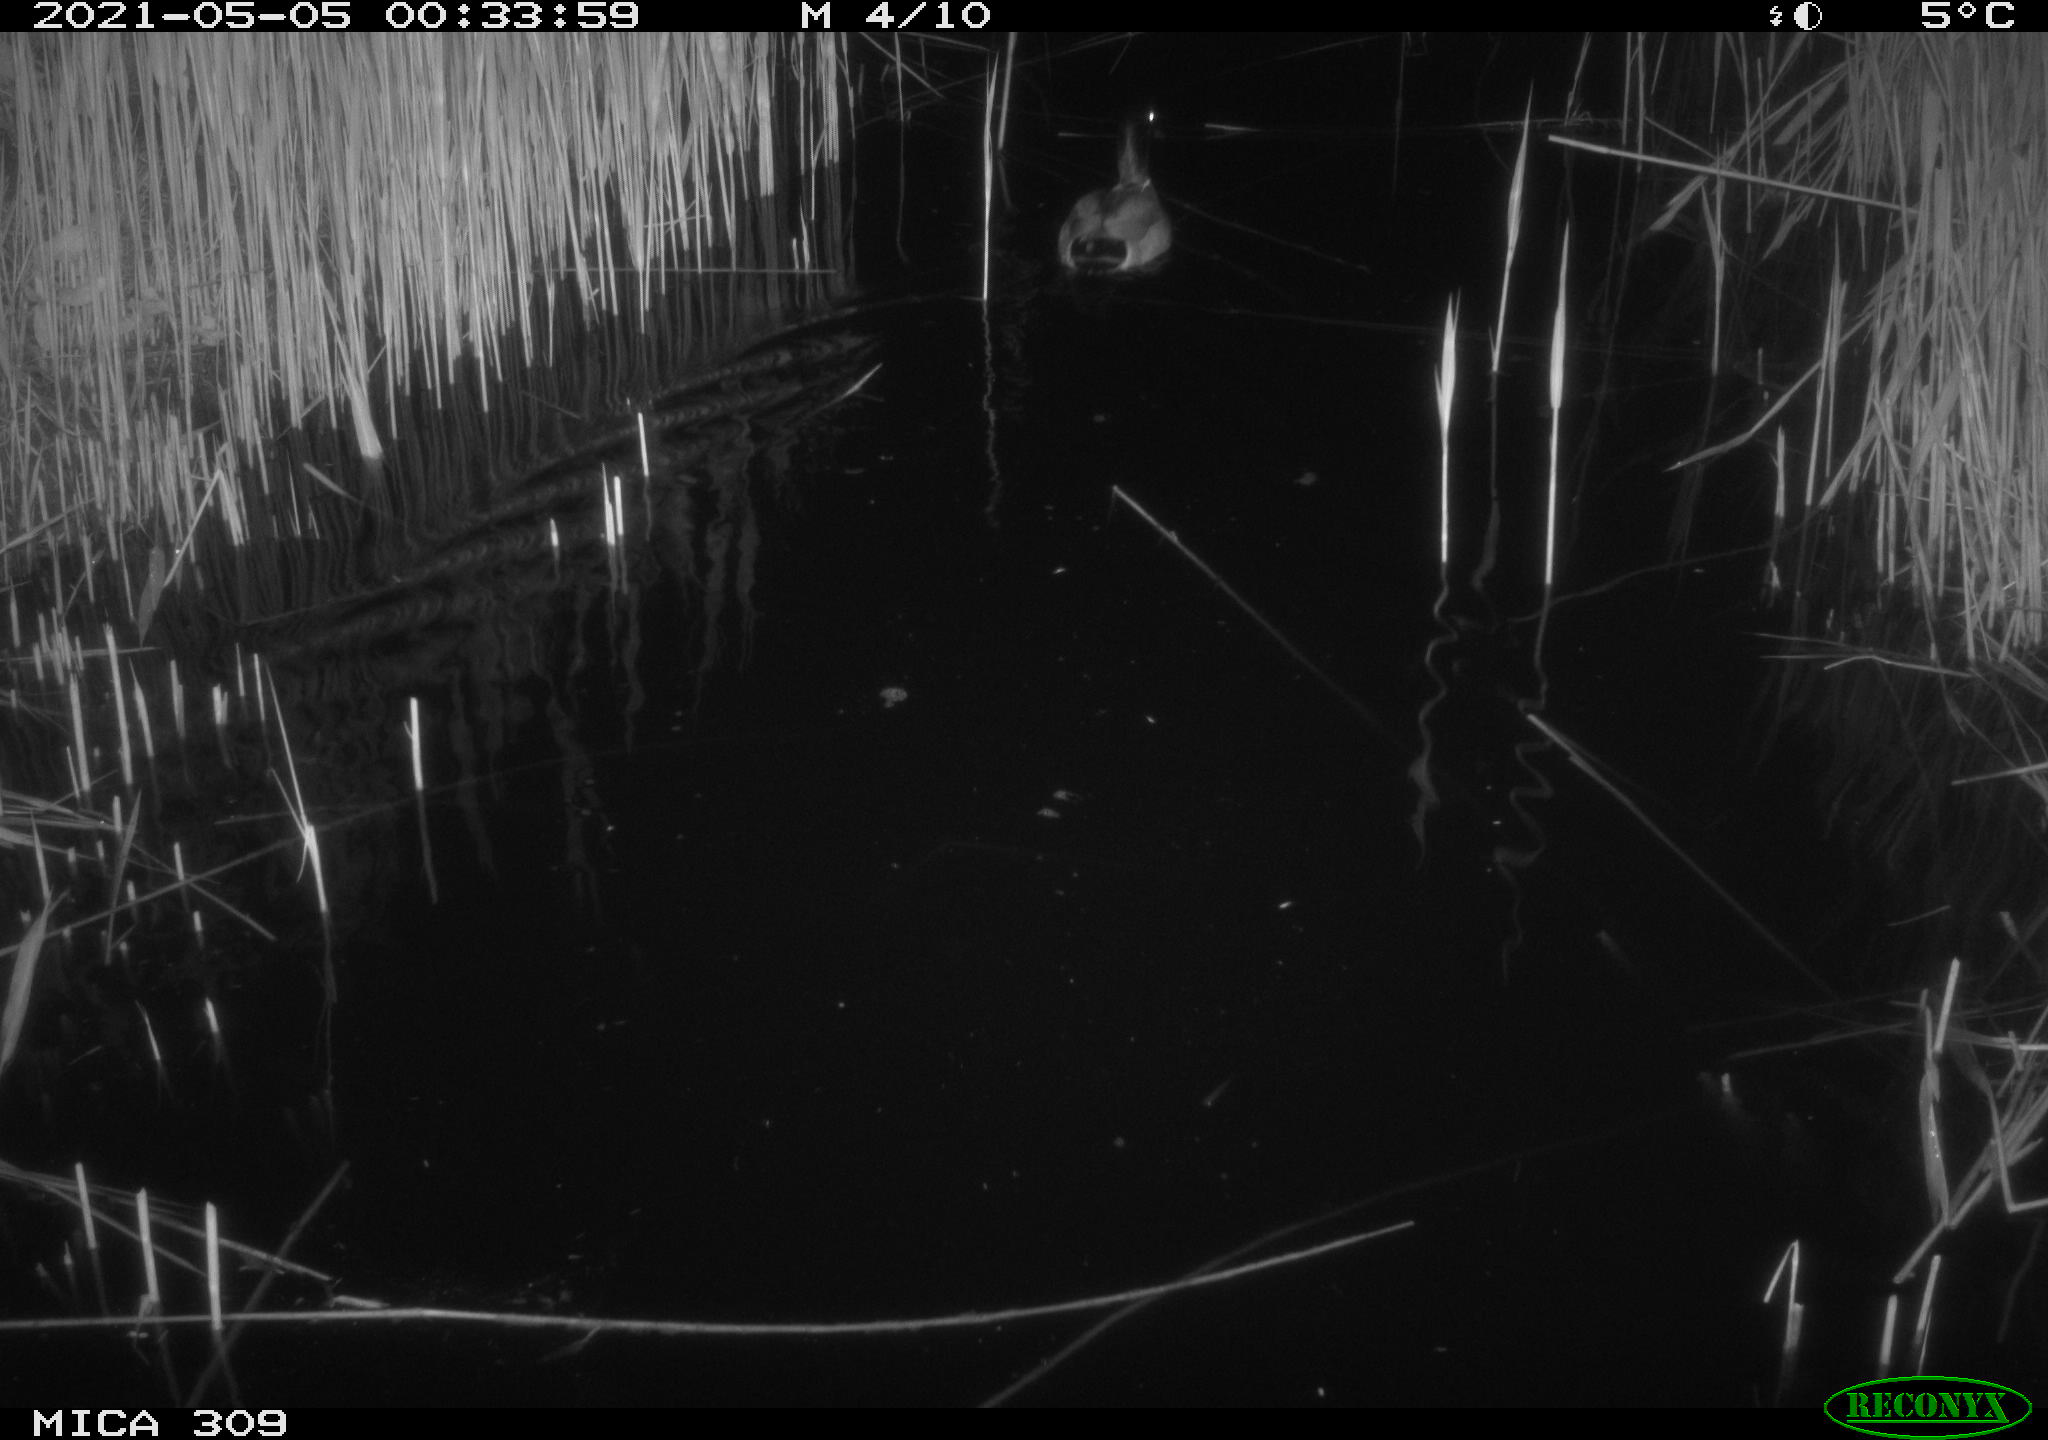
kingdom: Animalia
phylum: Chordata
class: Aves
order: Anseriformes
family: Anatidae
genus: Anas
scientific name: Anas platyrhynchos
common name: Mallard
